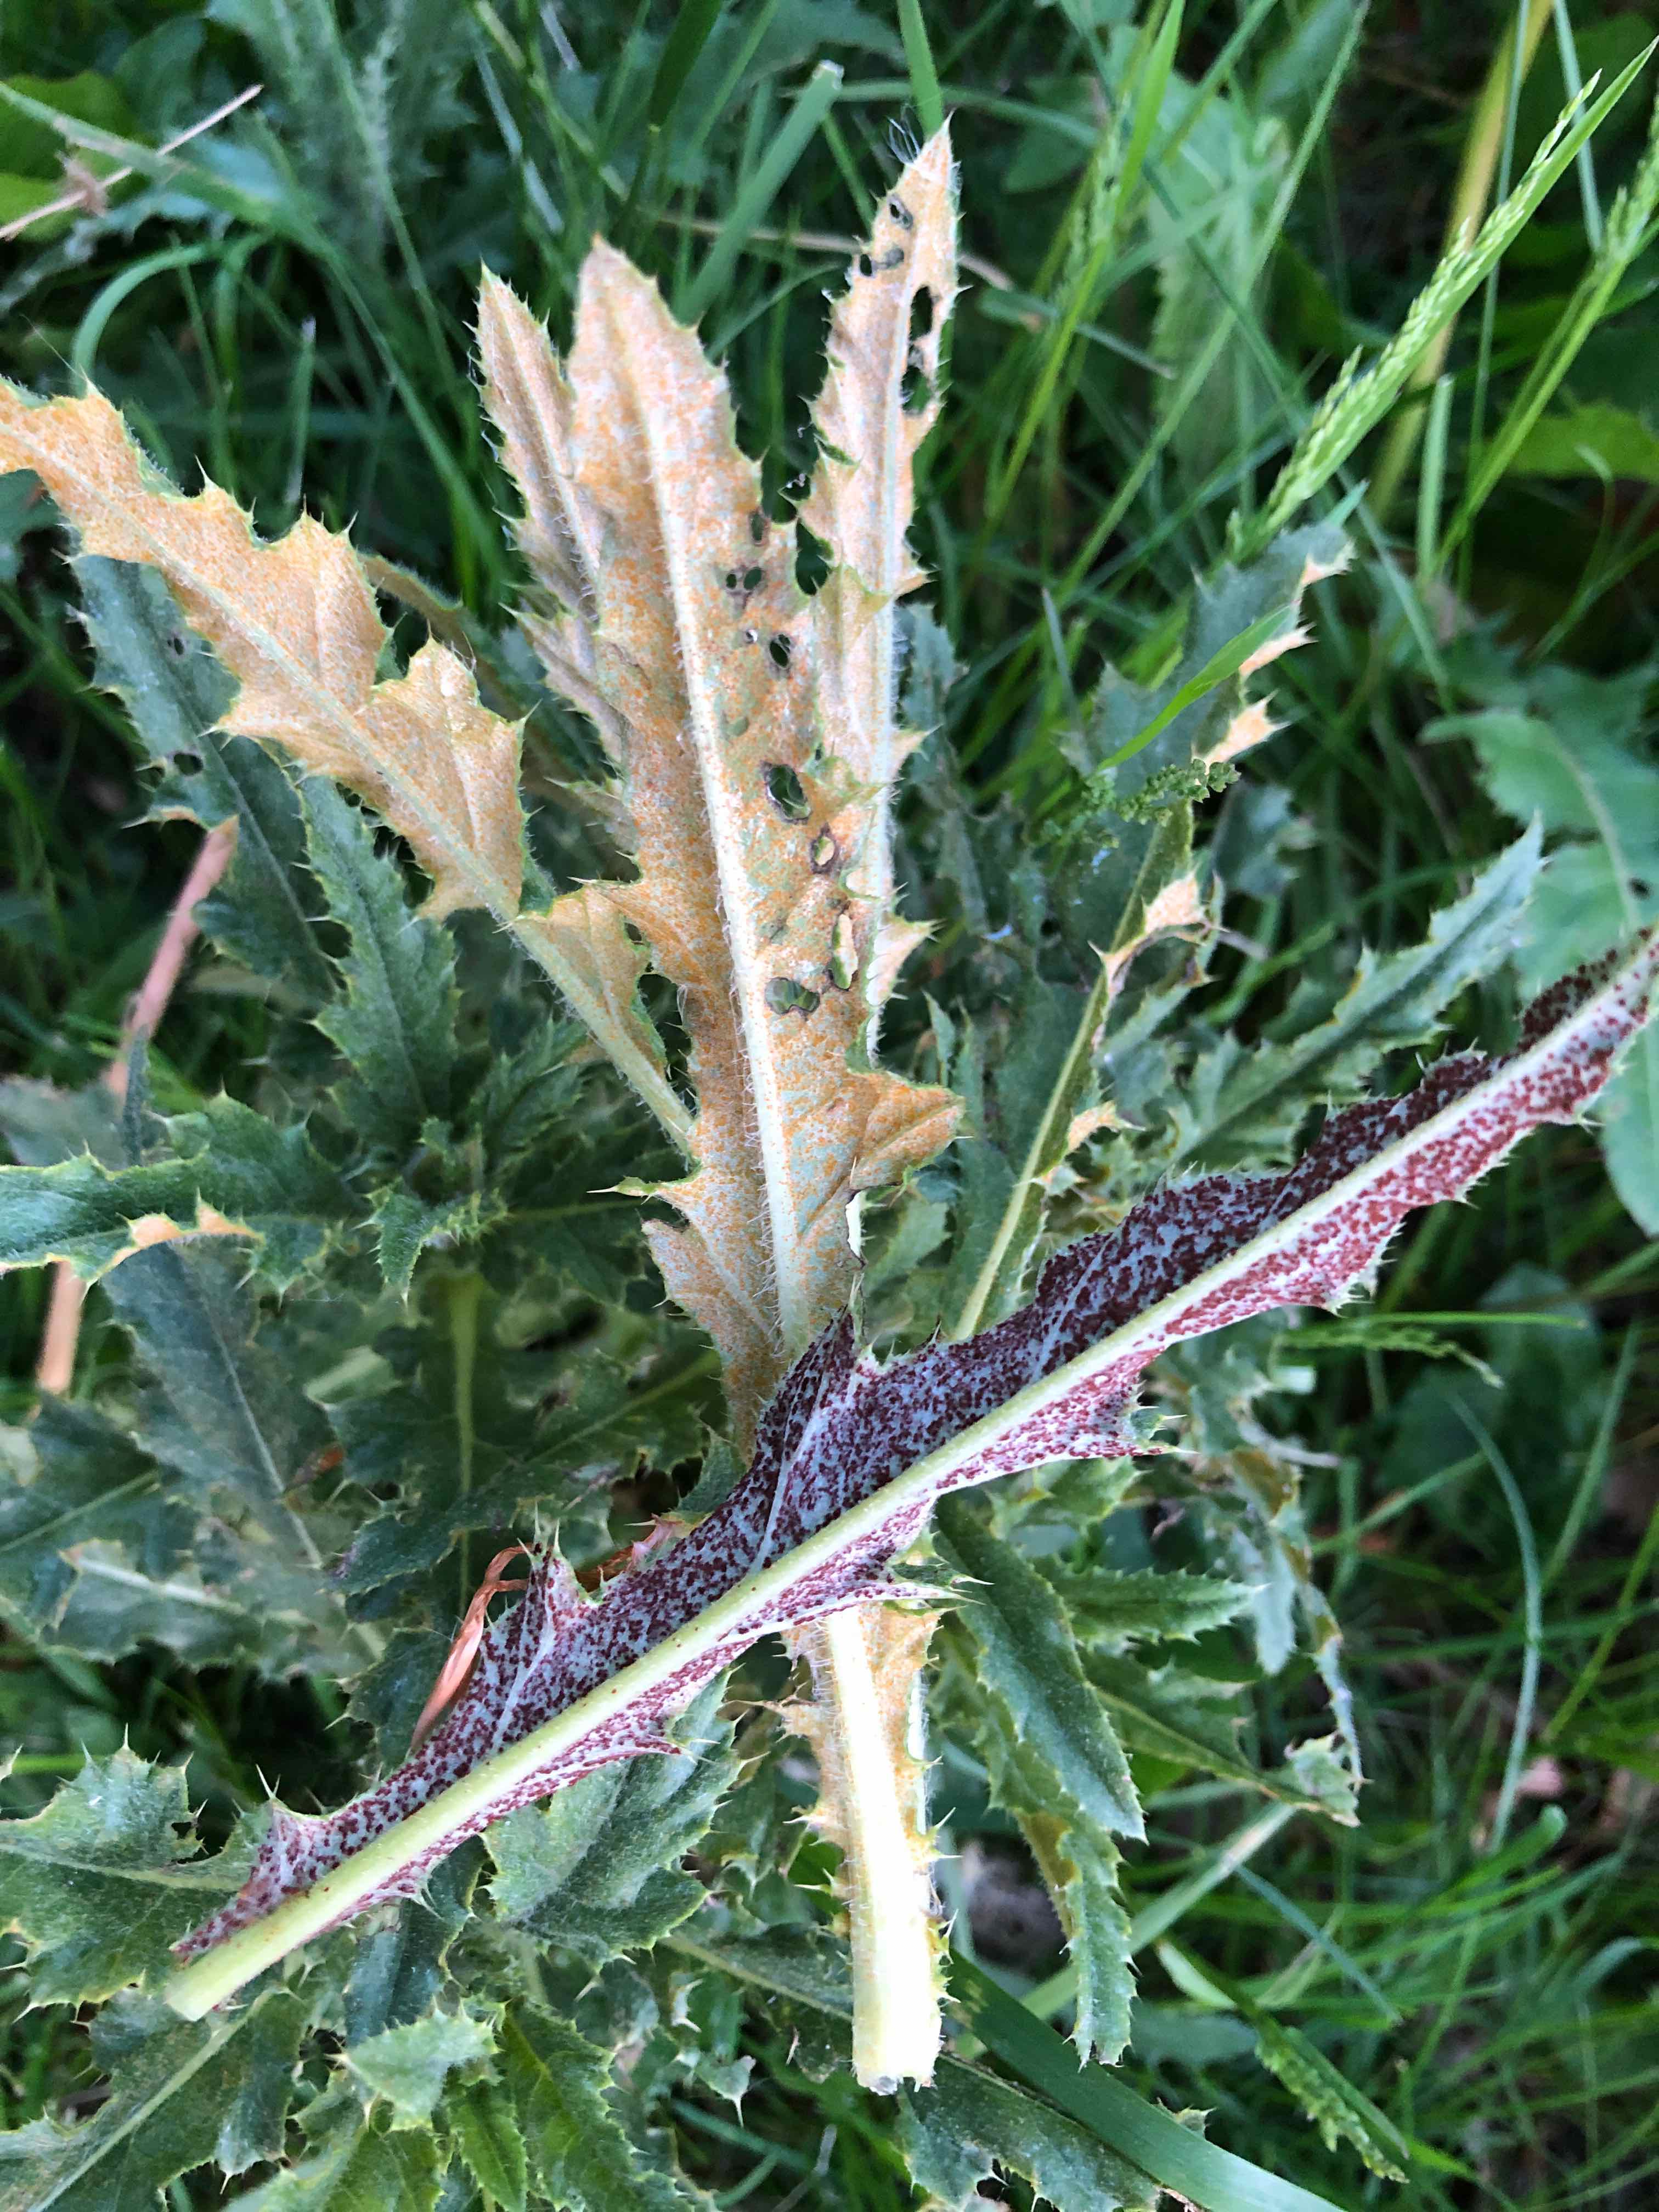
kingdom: Fungi
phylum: Basidiomycota
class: Pucciniomycetes
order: Pucciniales
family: Pucciniaceae
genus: Puccinia
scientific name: Puccinia suaveolens
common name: tidsel-tvecellerust
